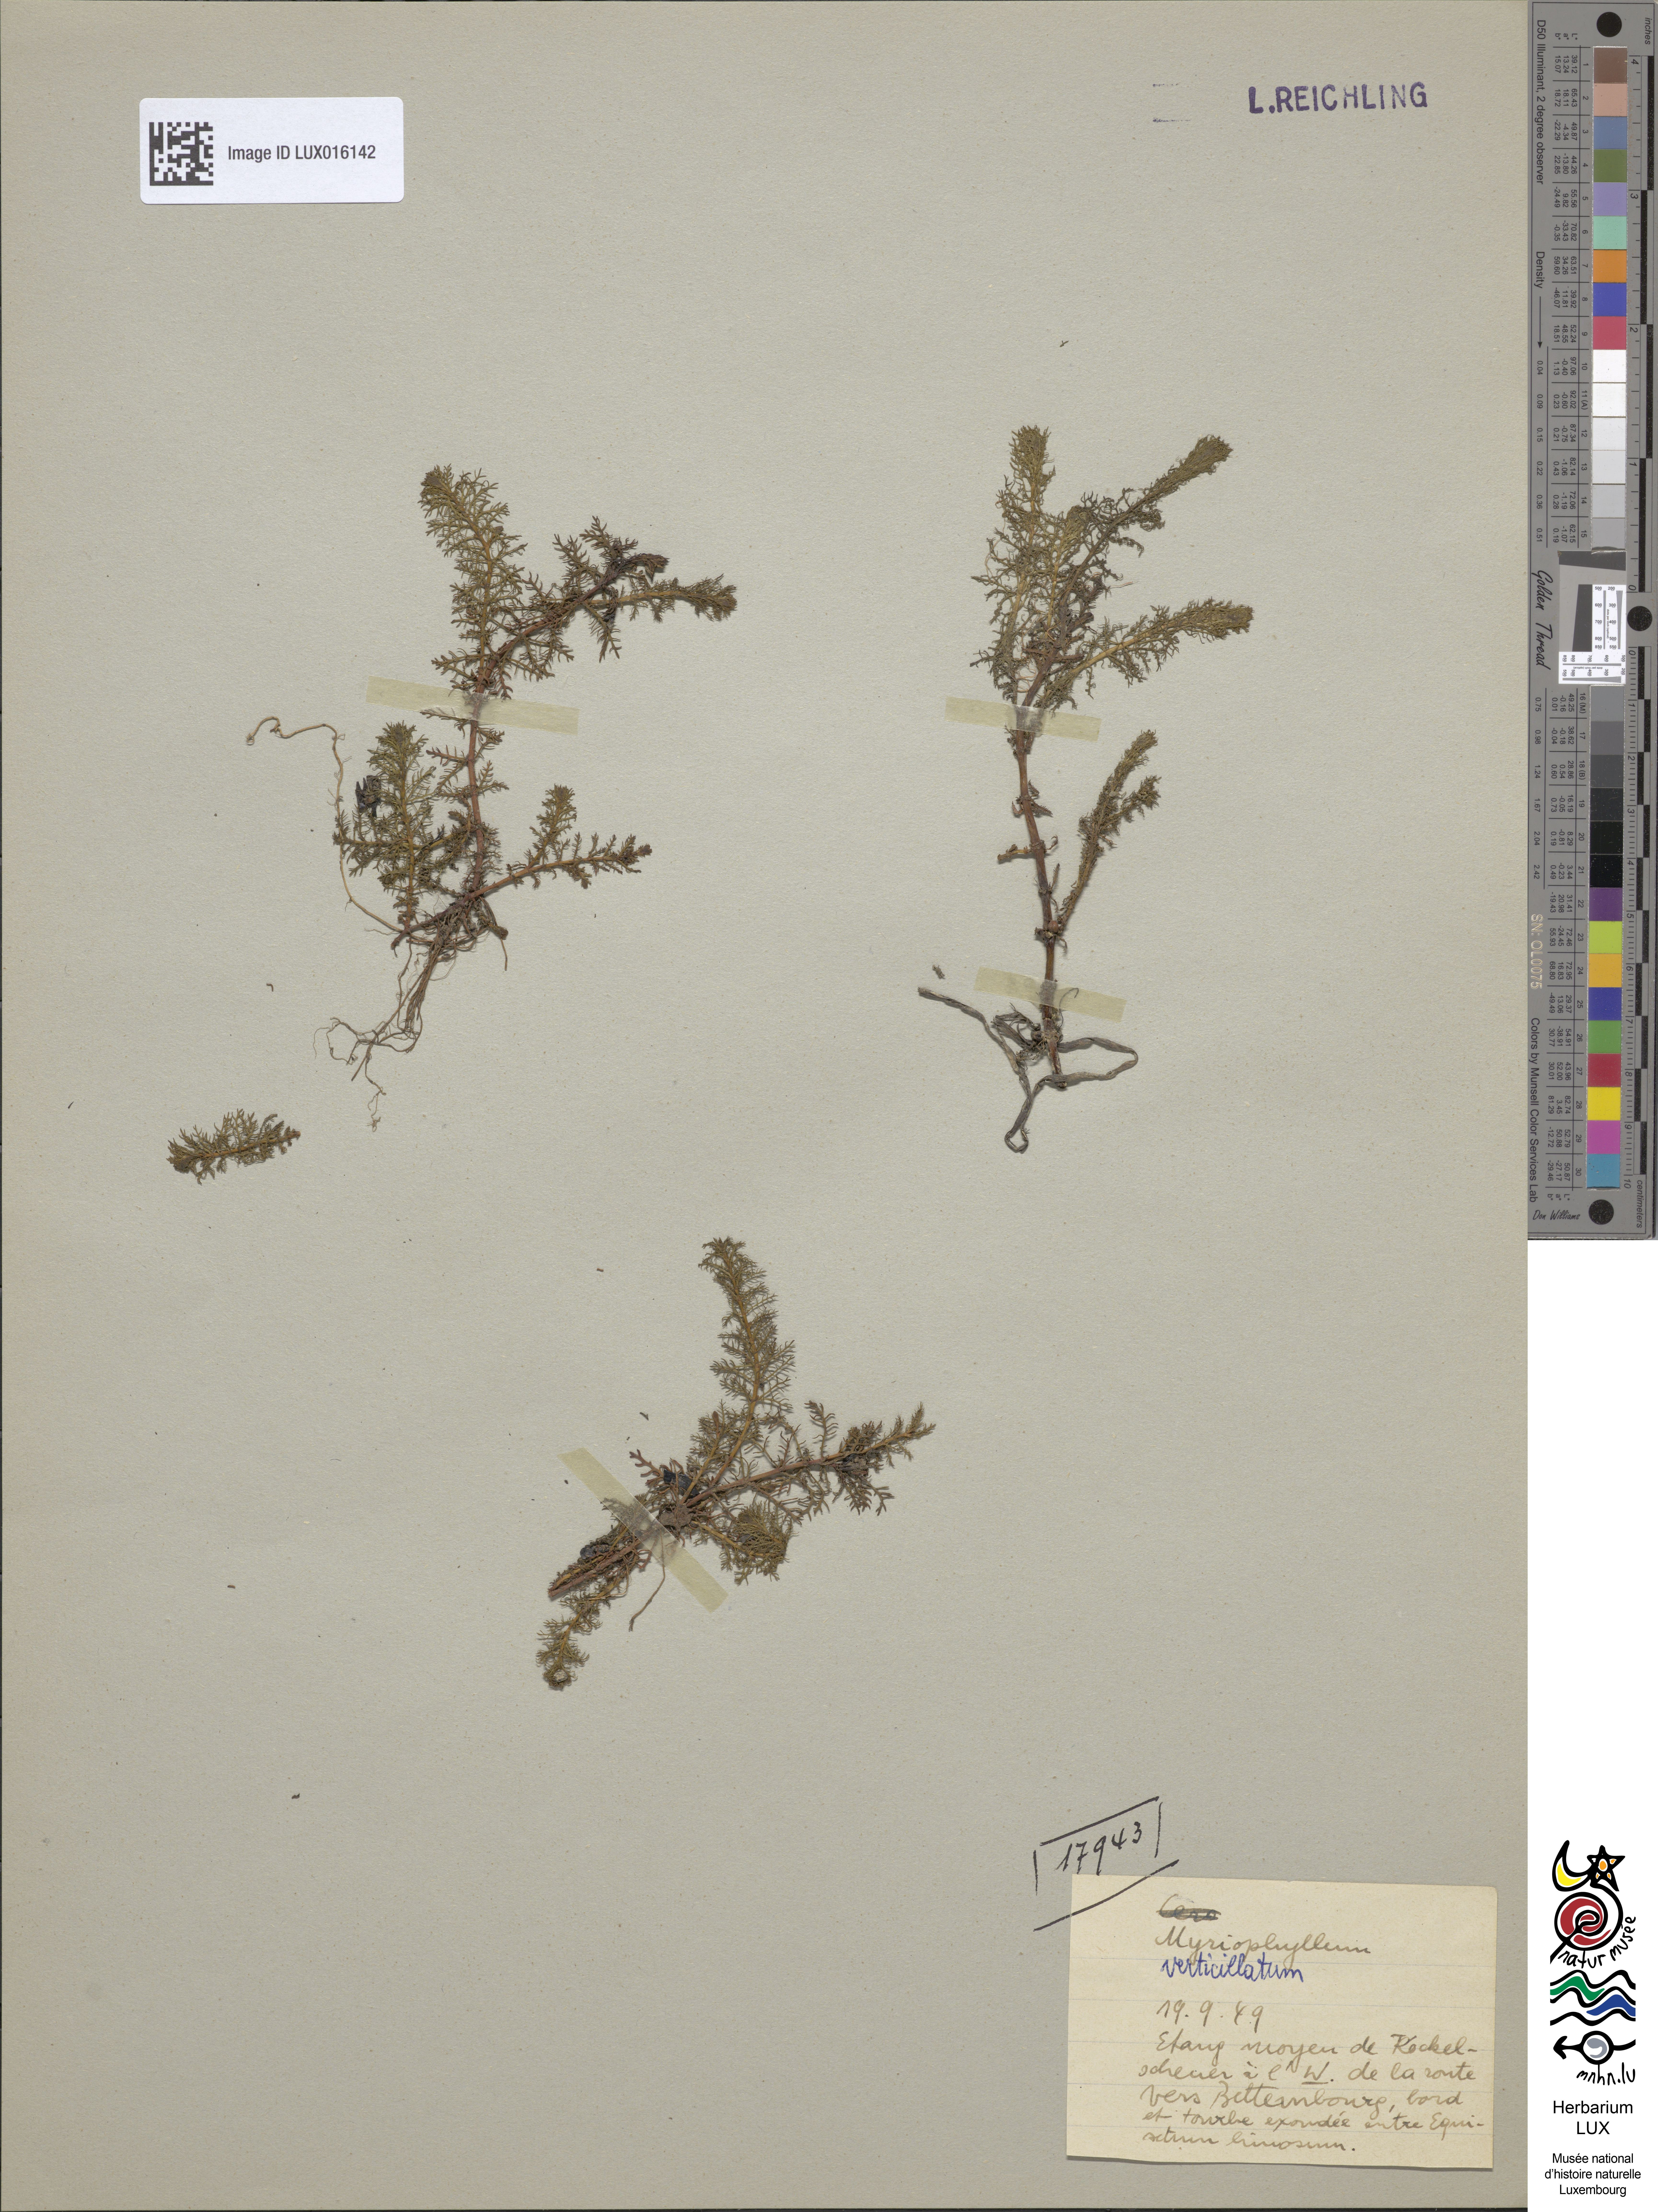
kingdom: Plantae
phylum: Tracheophyta
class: Magnoliopsida
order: Saxifragales
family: Haloragaceae
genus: Myriophyllum
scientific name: Myriophyllum verticillatum
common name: Whorled water-milfoil
